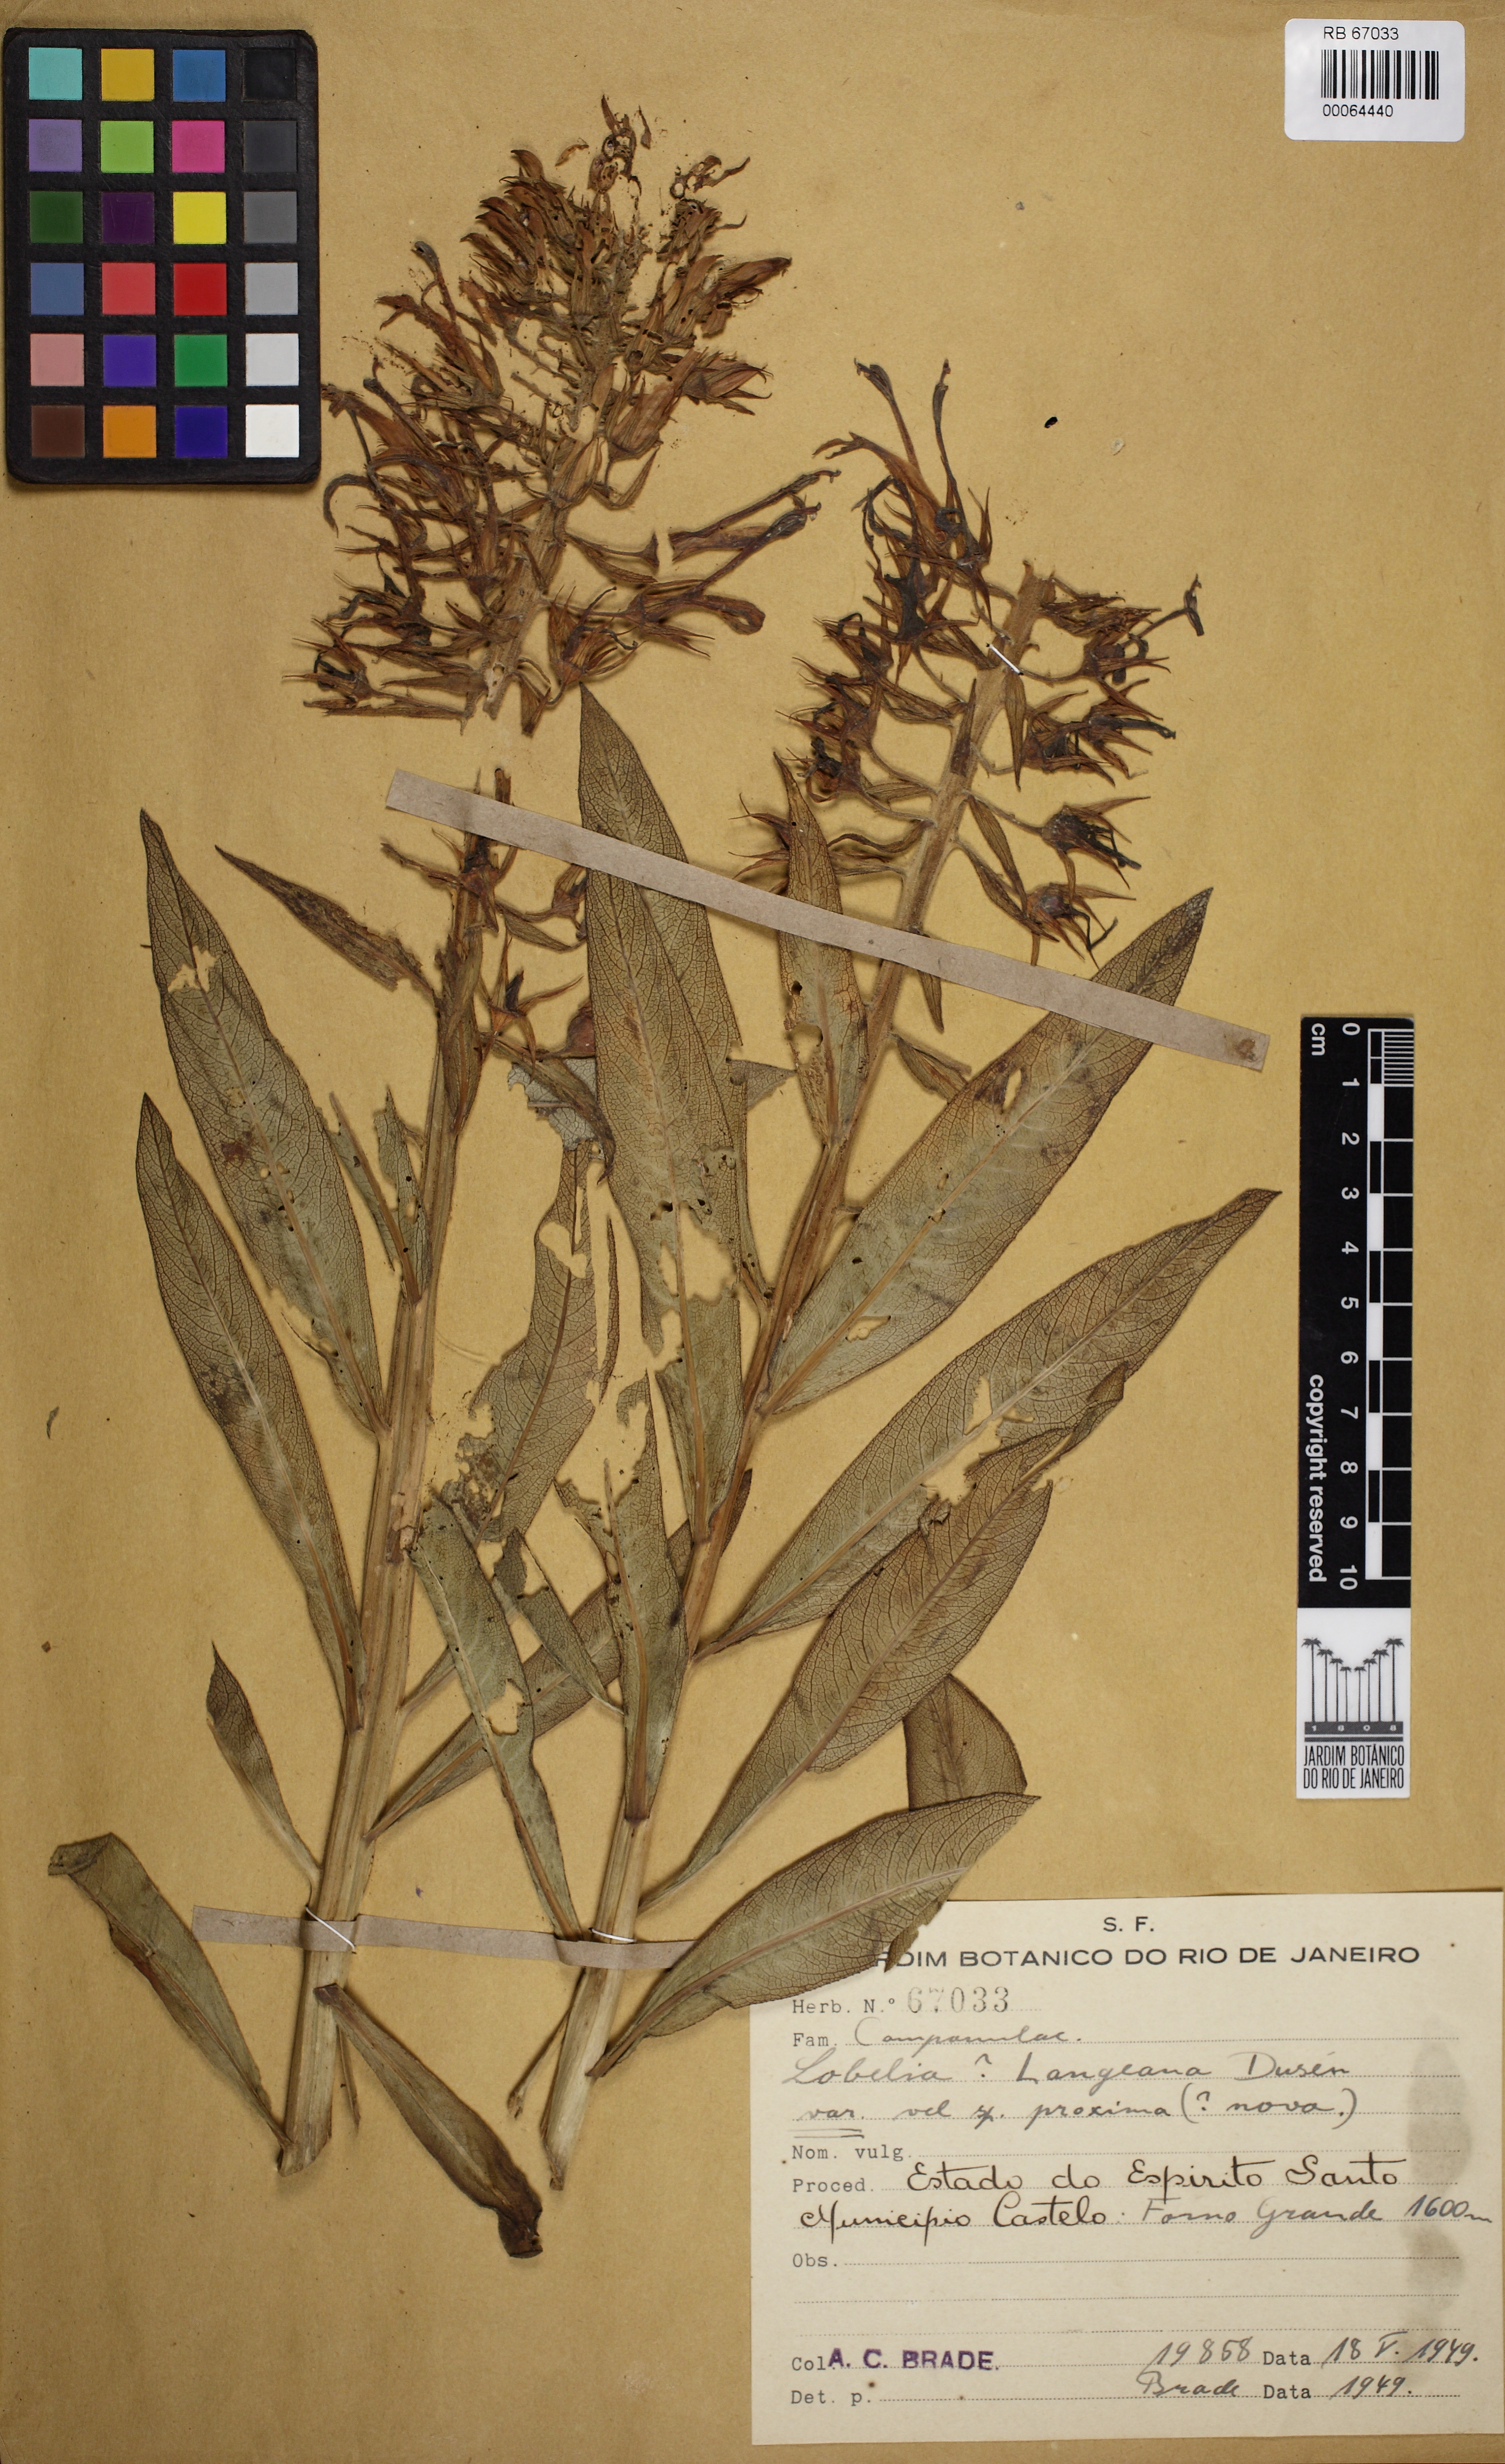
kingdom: Plantae
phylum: Tracheophyta
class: Magnoliopsida
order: Asterales
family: Campanulaceae
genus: Lobelia
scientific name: Lobelia organensis
